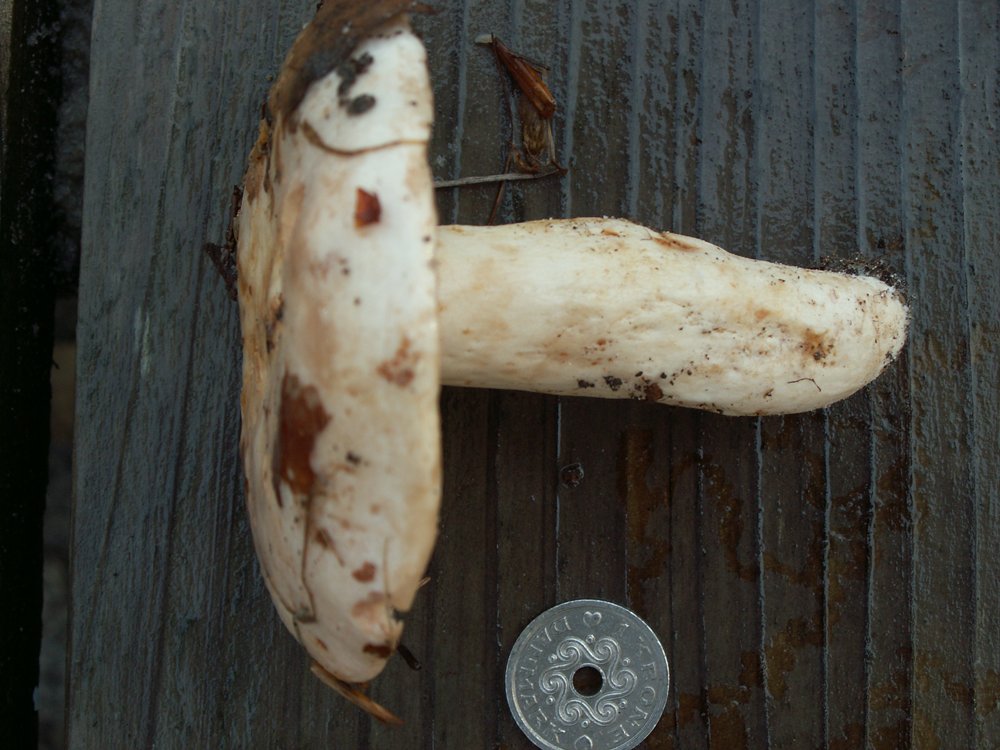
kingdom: Fungi
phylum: Basidiomycota
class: Agaricomycetes
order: Russulales
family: Russulaceae
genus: Lactarius
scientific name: Lactarius pallidus
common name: bleg mælkehat
